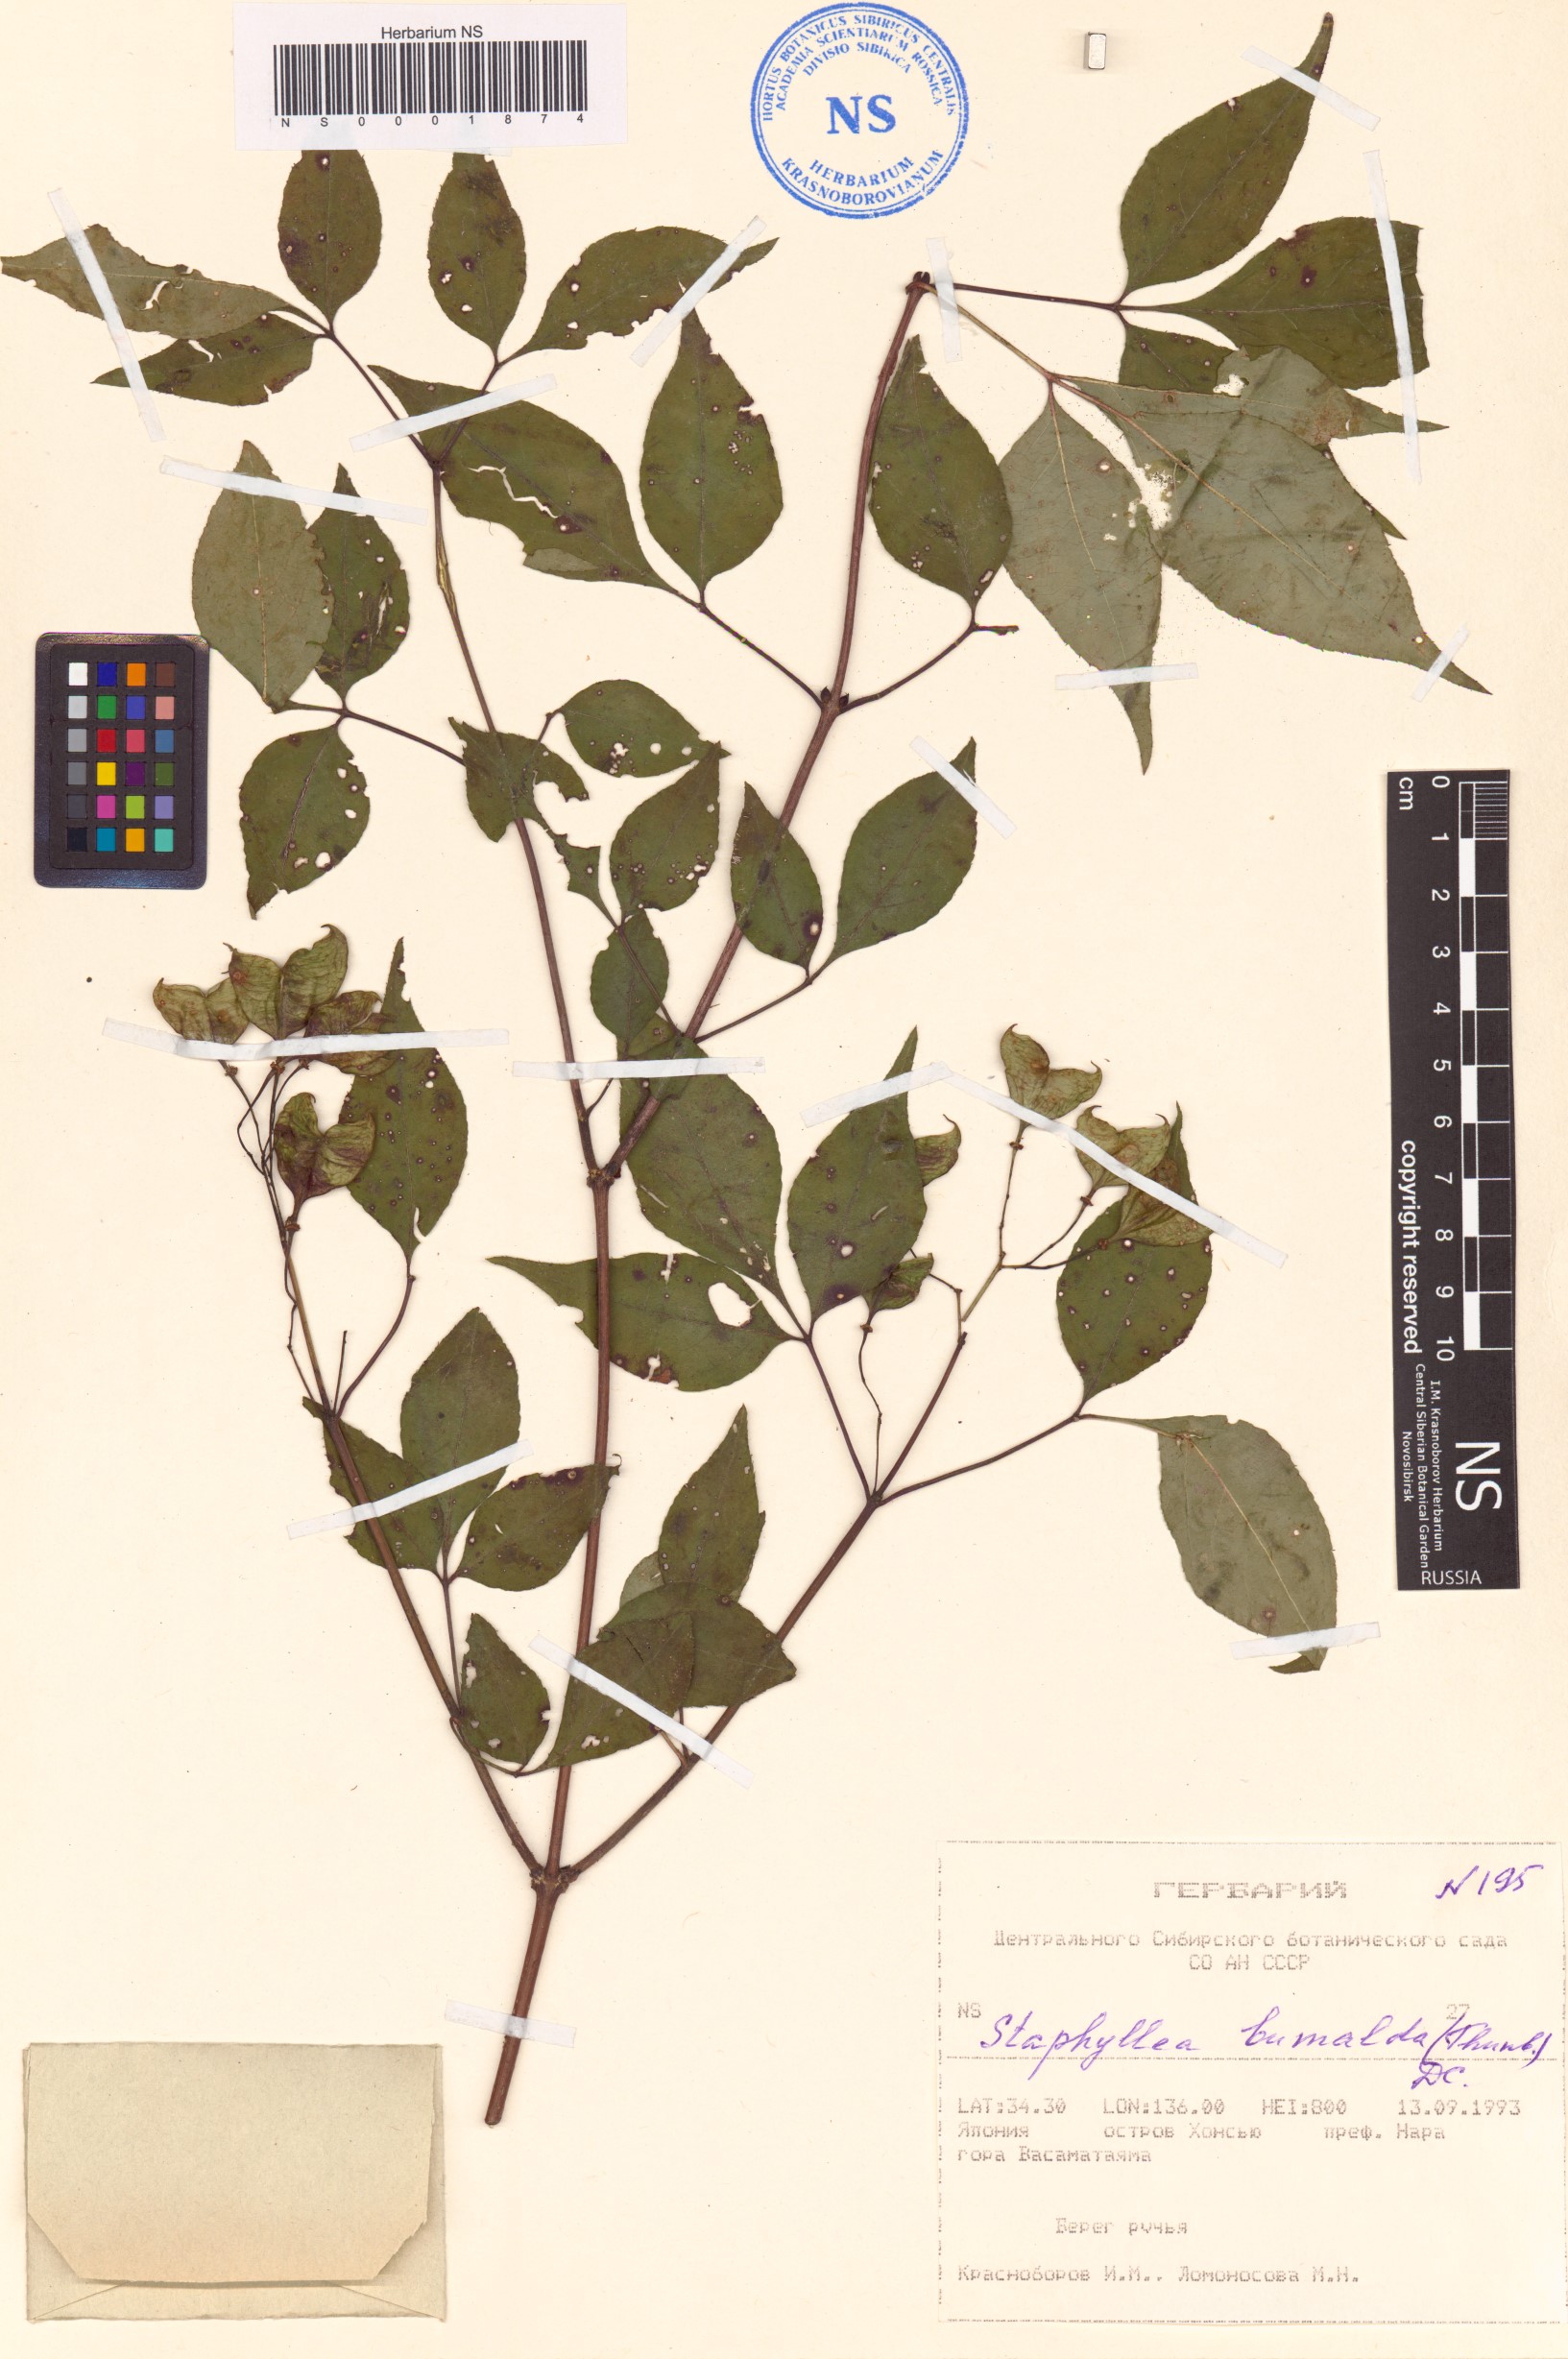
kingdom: Plantae
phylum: Tracheophyta
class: Magnoliopsida
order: Crossosomatales
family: Staphyleaceae
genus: Staphylea
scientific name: Staphylea bumalda
